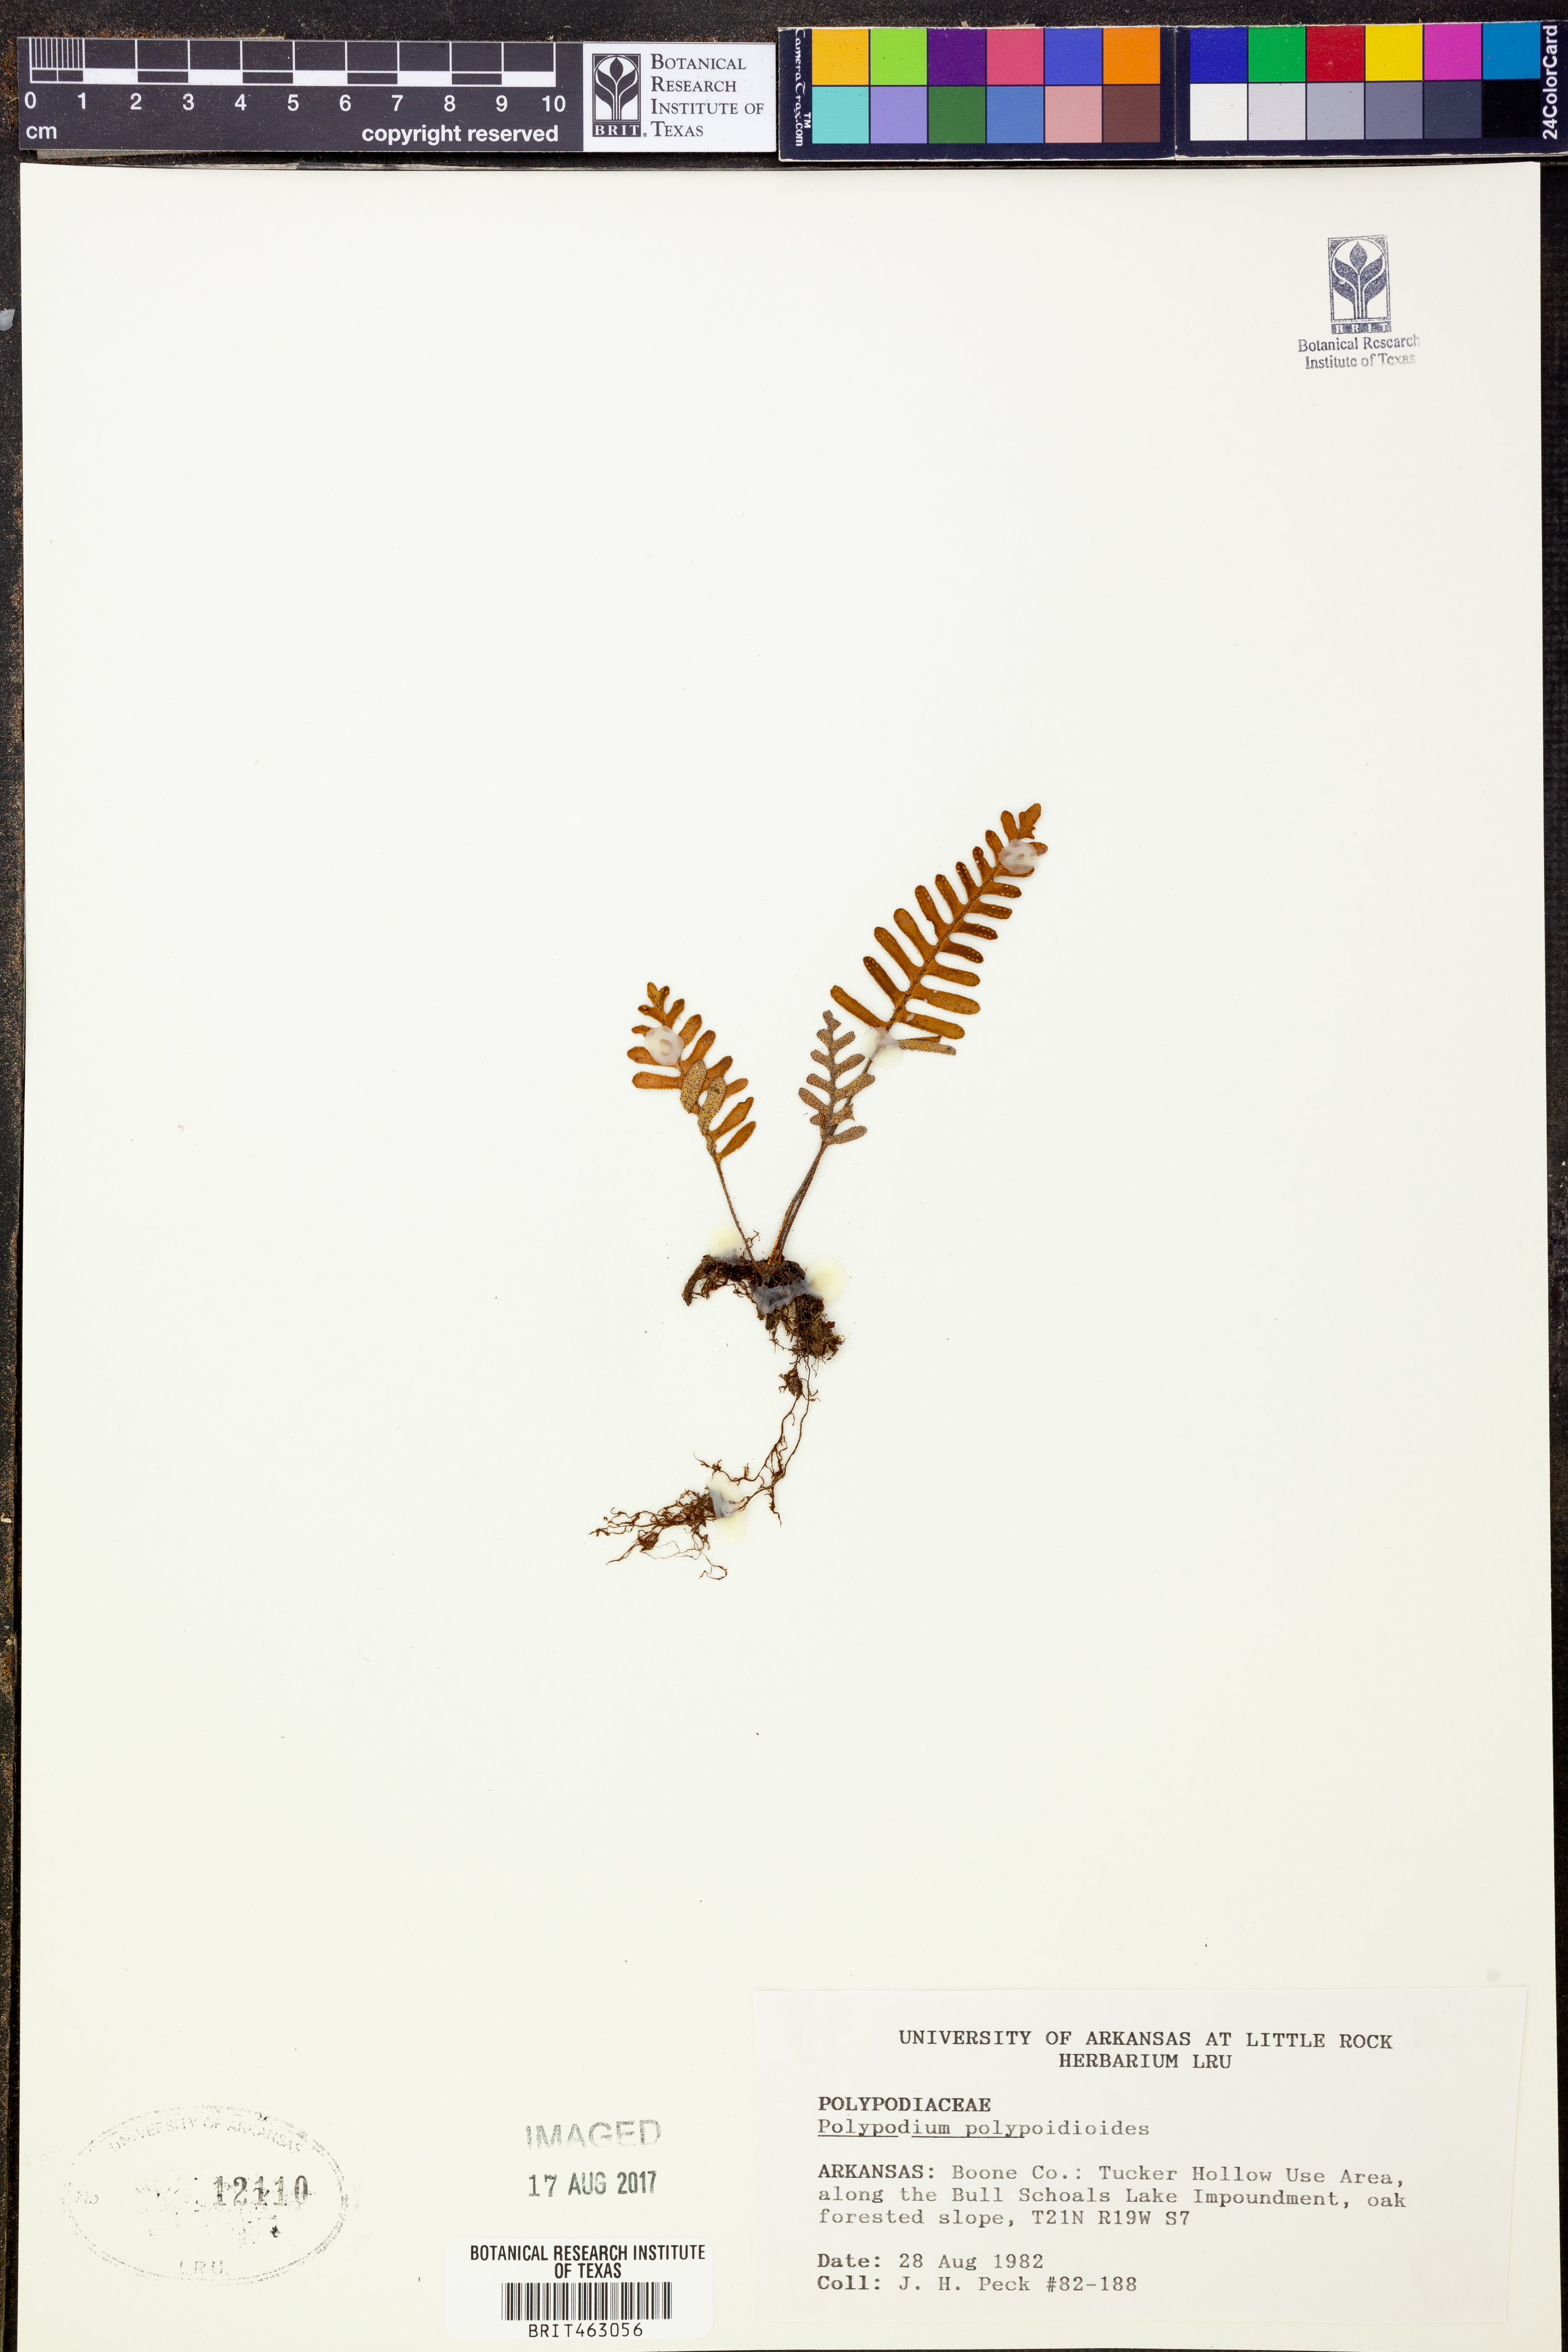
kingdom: Plantae
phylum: Tracheophyta
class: Polypodiopsida
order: Polypodiales
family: Polypodiaceae
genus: Pleopeltis
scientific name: Pleopeltis polypodioides
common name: Resurrection fern
